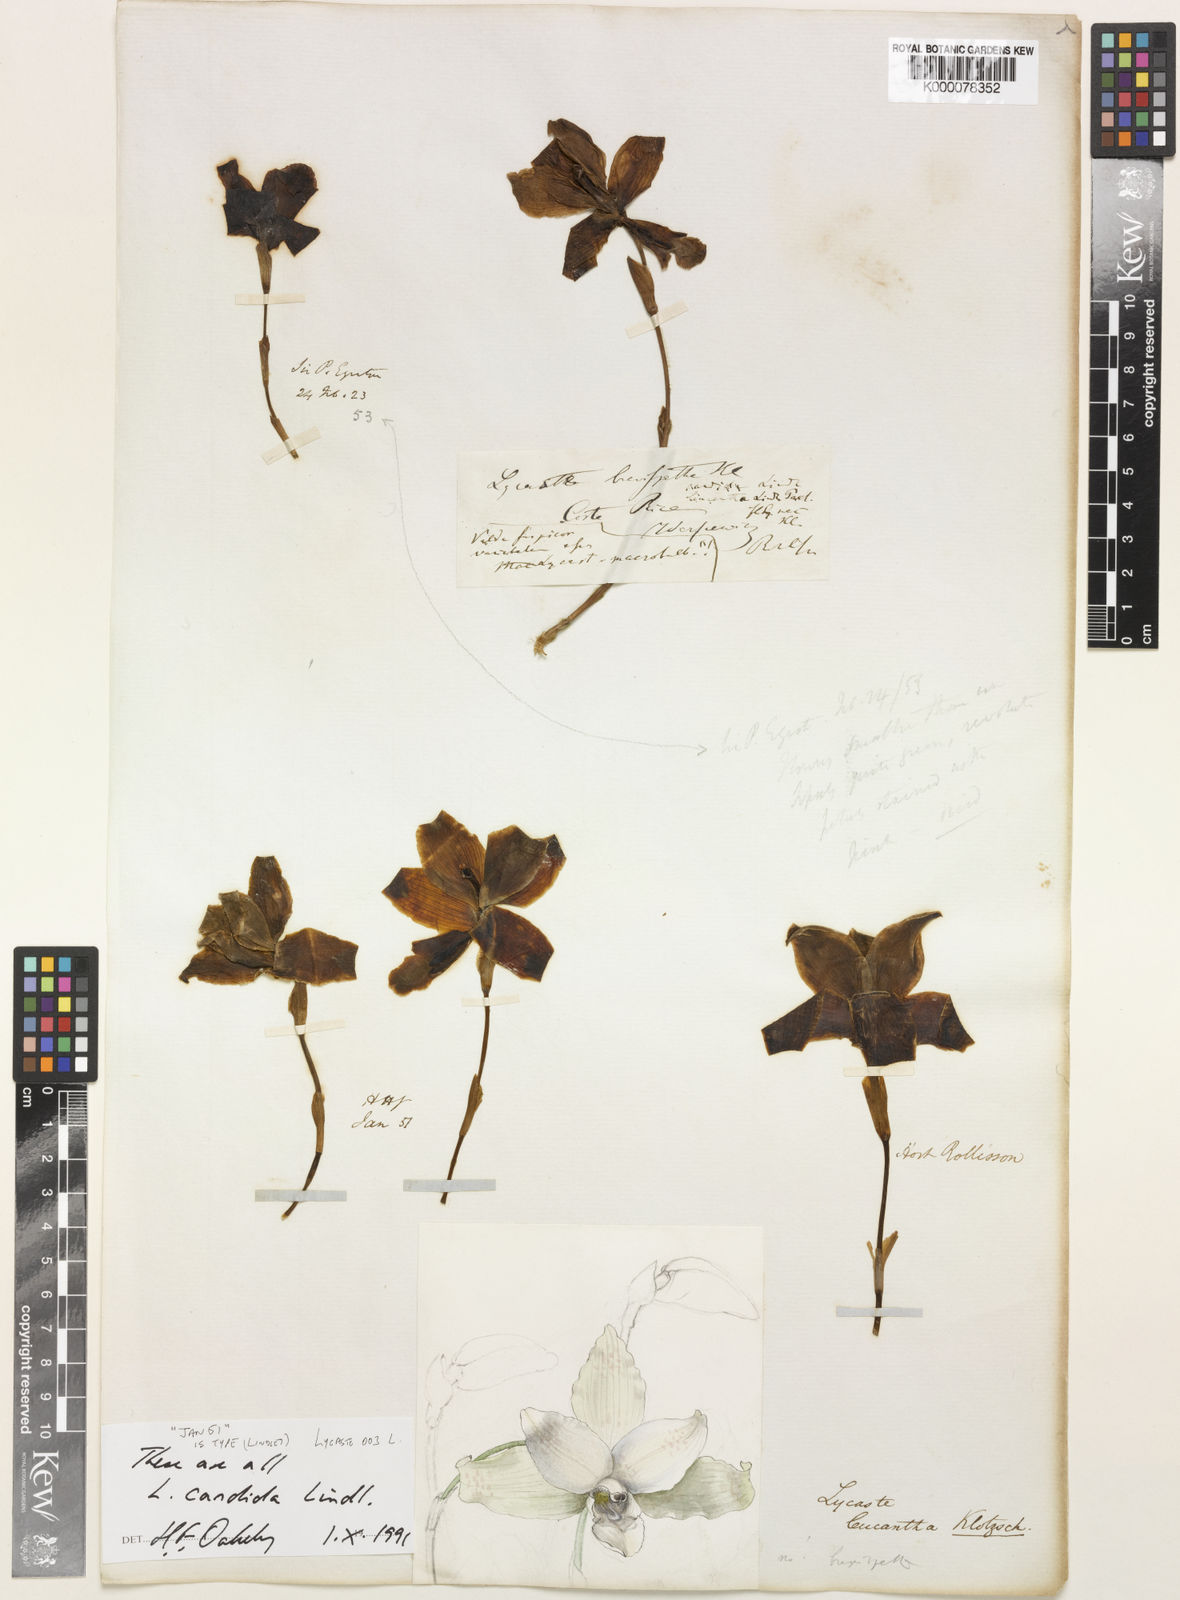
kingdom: Plantae
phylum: Tracheophyta
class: Liliopsida
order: Asparagales
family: Orchidaceae
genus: Lycaste
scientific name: Lycaste
